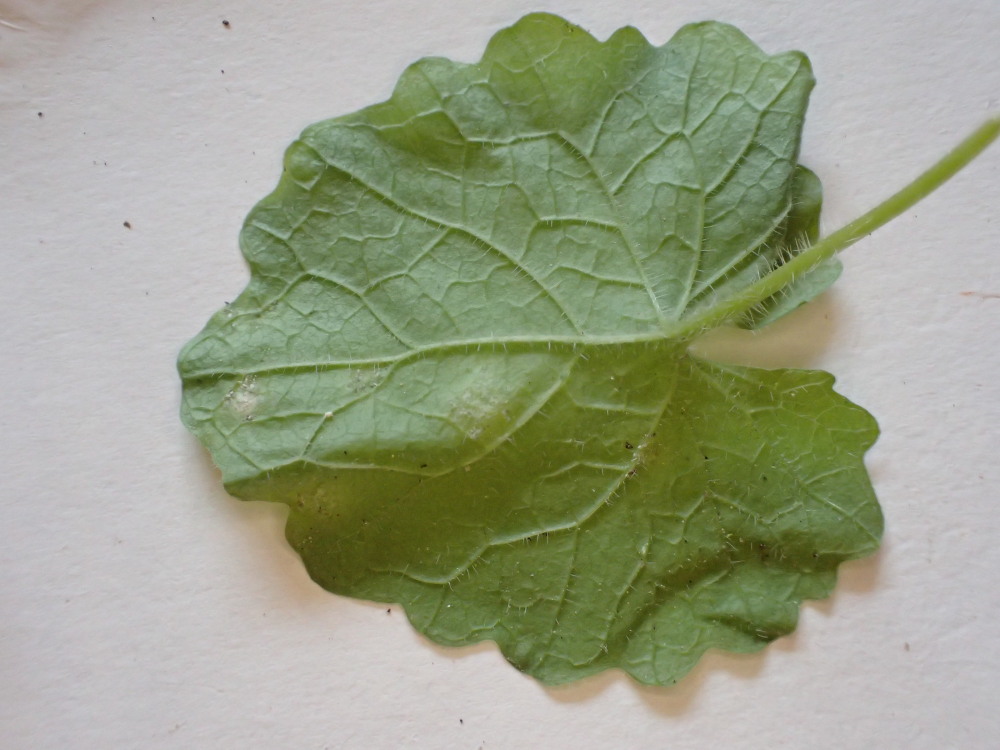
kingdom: Chromista
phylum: Oomycota
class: Peronosporea
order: Peronosporales
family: Peronosporaceae
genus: Hyaloperonospora
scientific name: Hyaloperonospora niessliana
